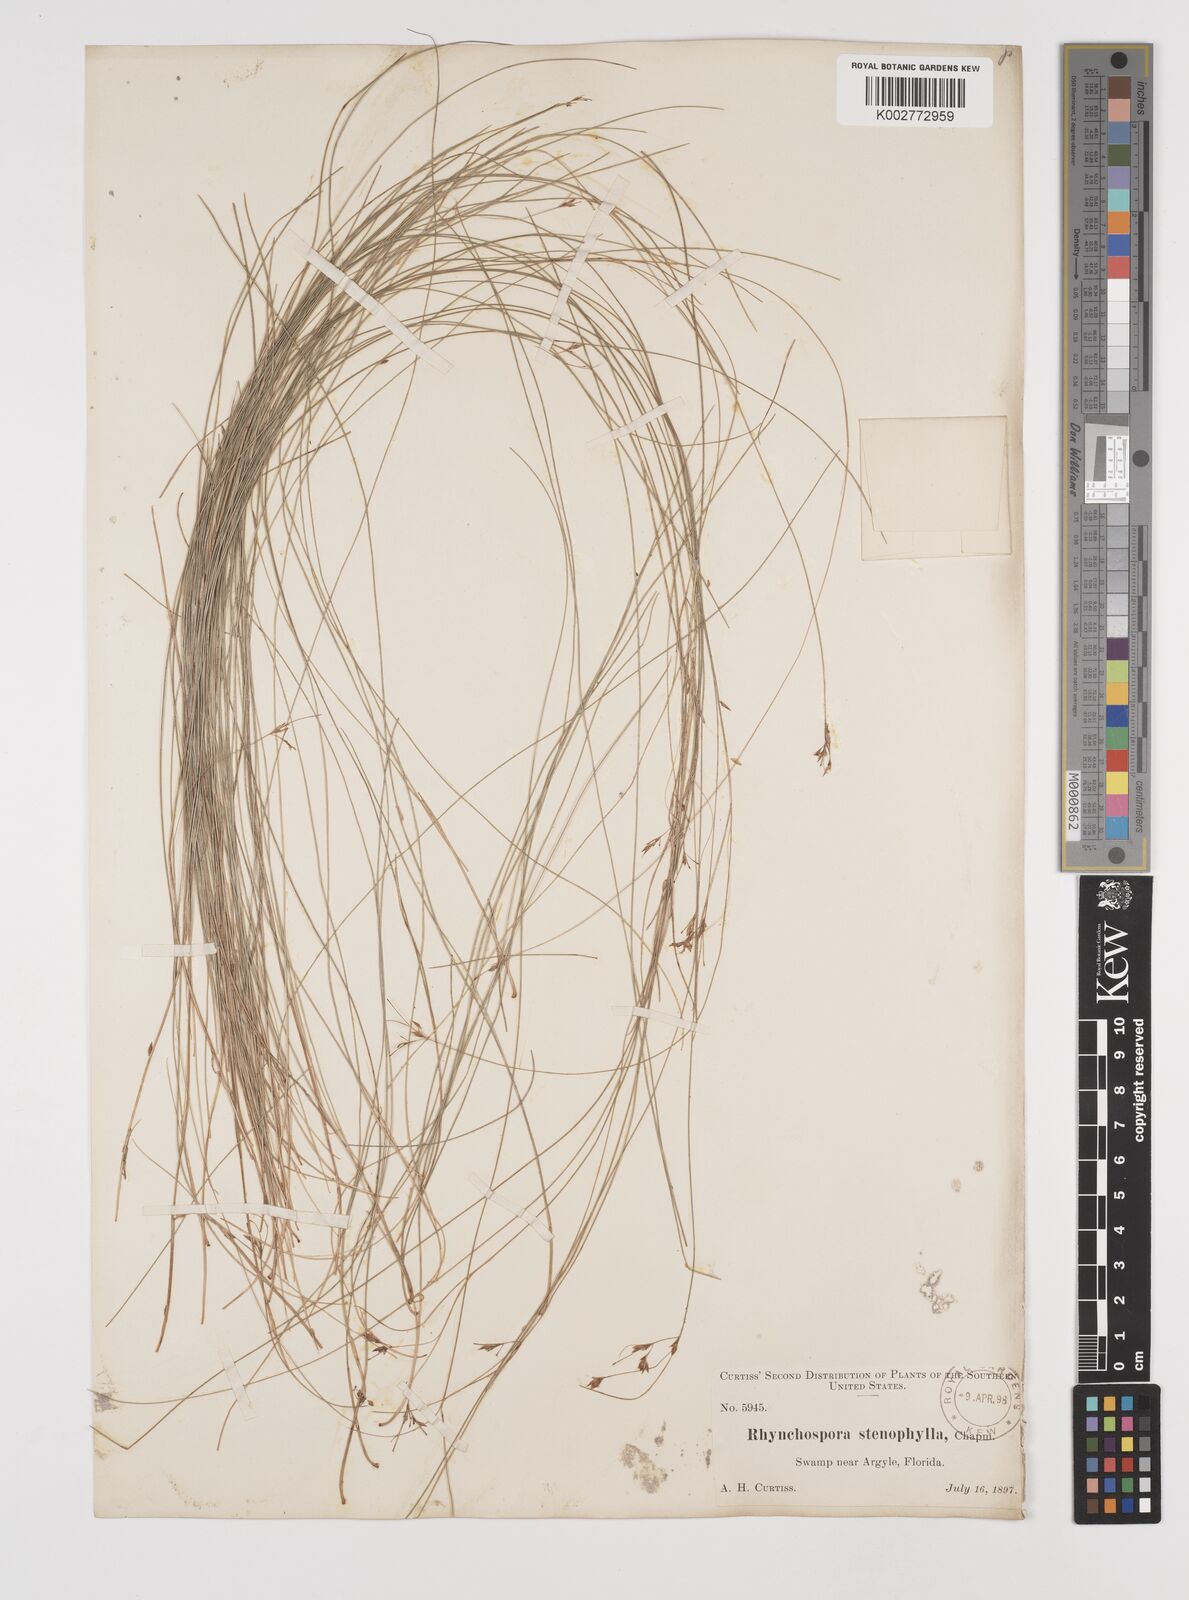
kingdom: Plantae
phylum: Tracheophyta
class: Liliopsida
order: Poales
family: Cyperaceae
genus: Rhynchospora
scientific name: Rhynchospora stenophylla
